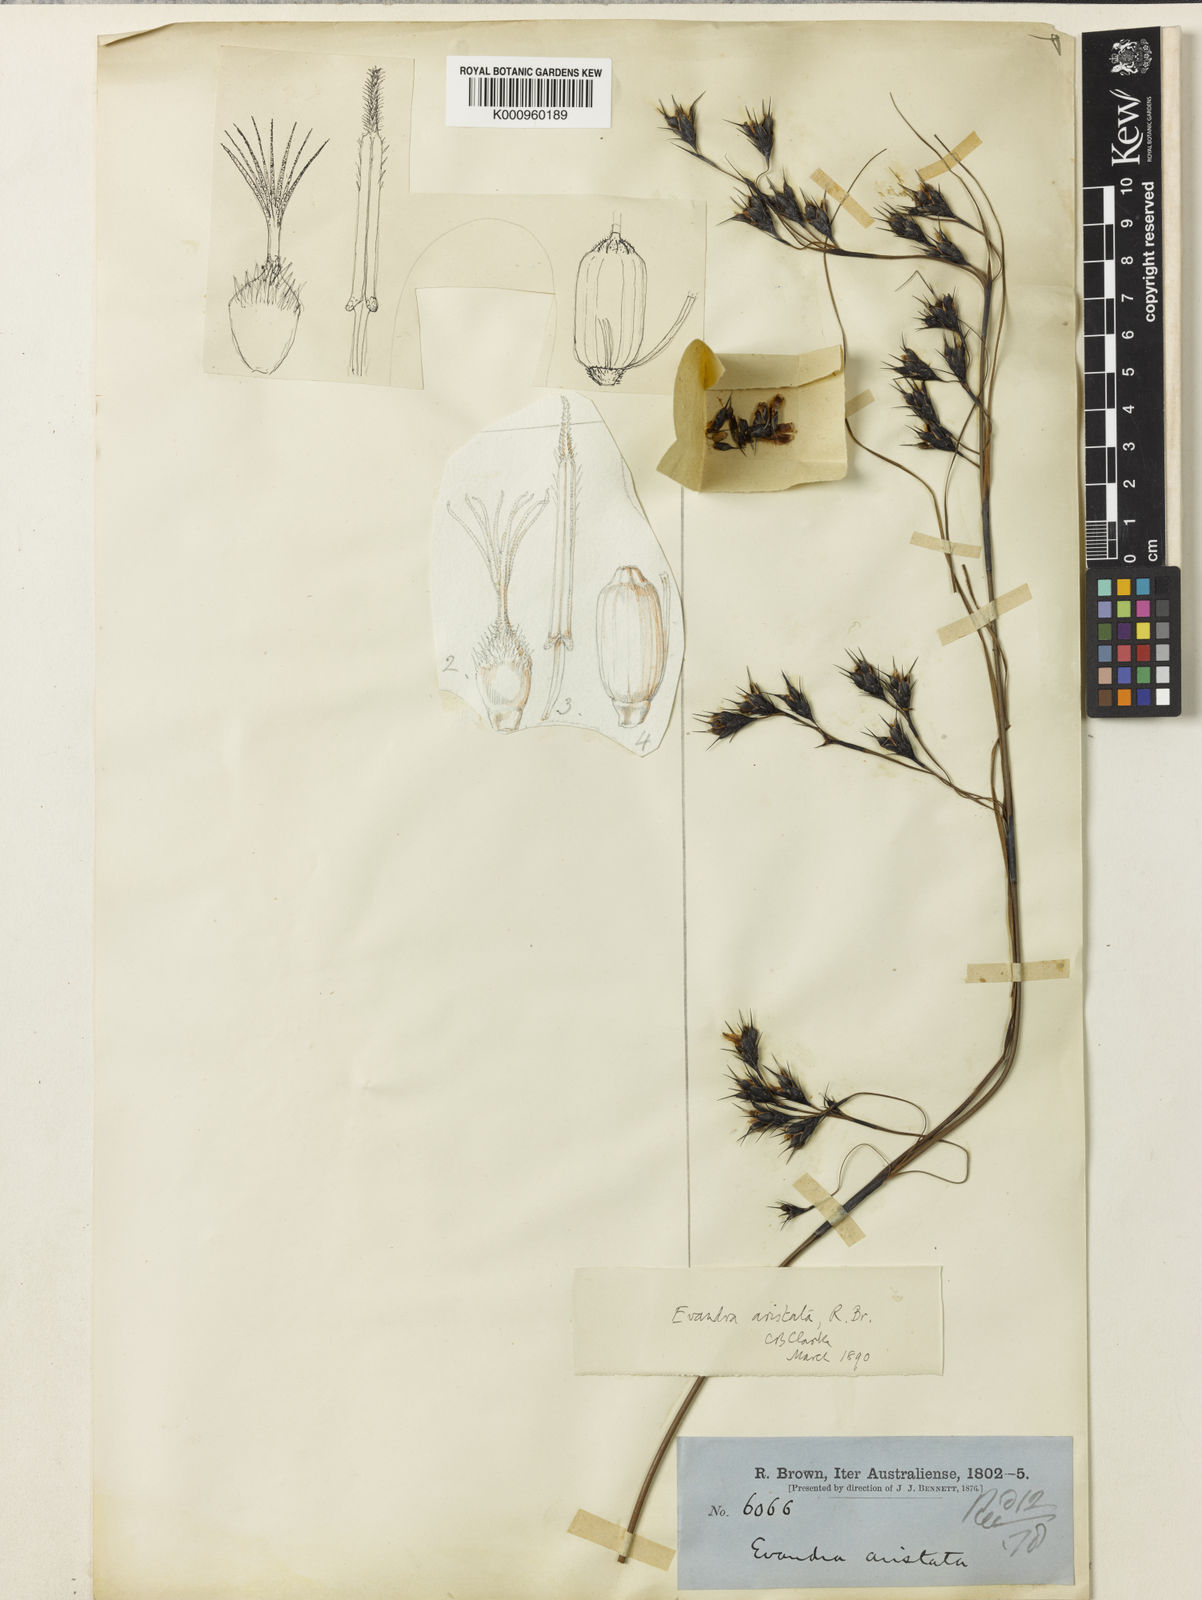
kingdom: Plantae
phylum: Tracheophyta
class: Liliopsida
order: Poales
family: Cyperaceae
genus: Evandra
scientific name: Evandra aristata
